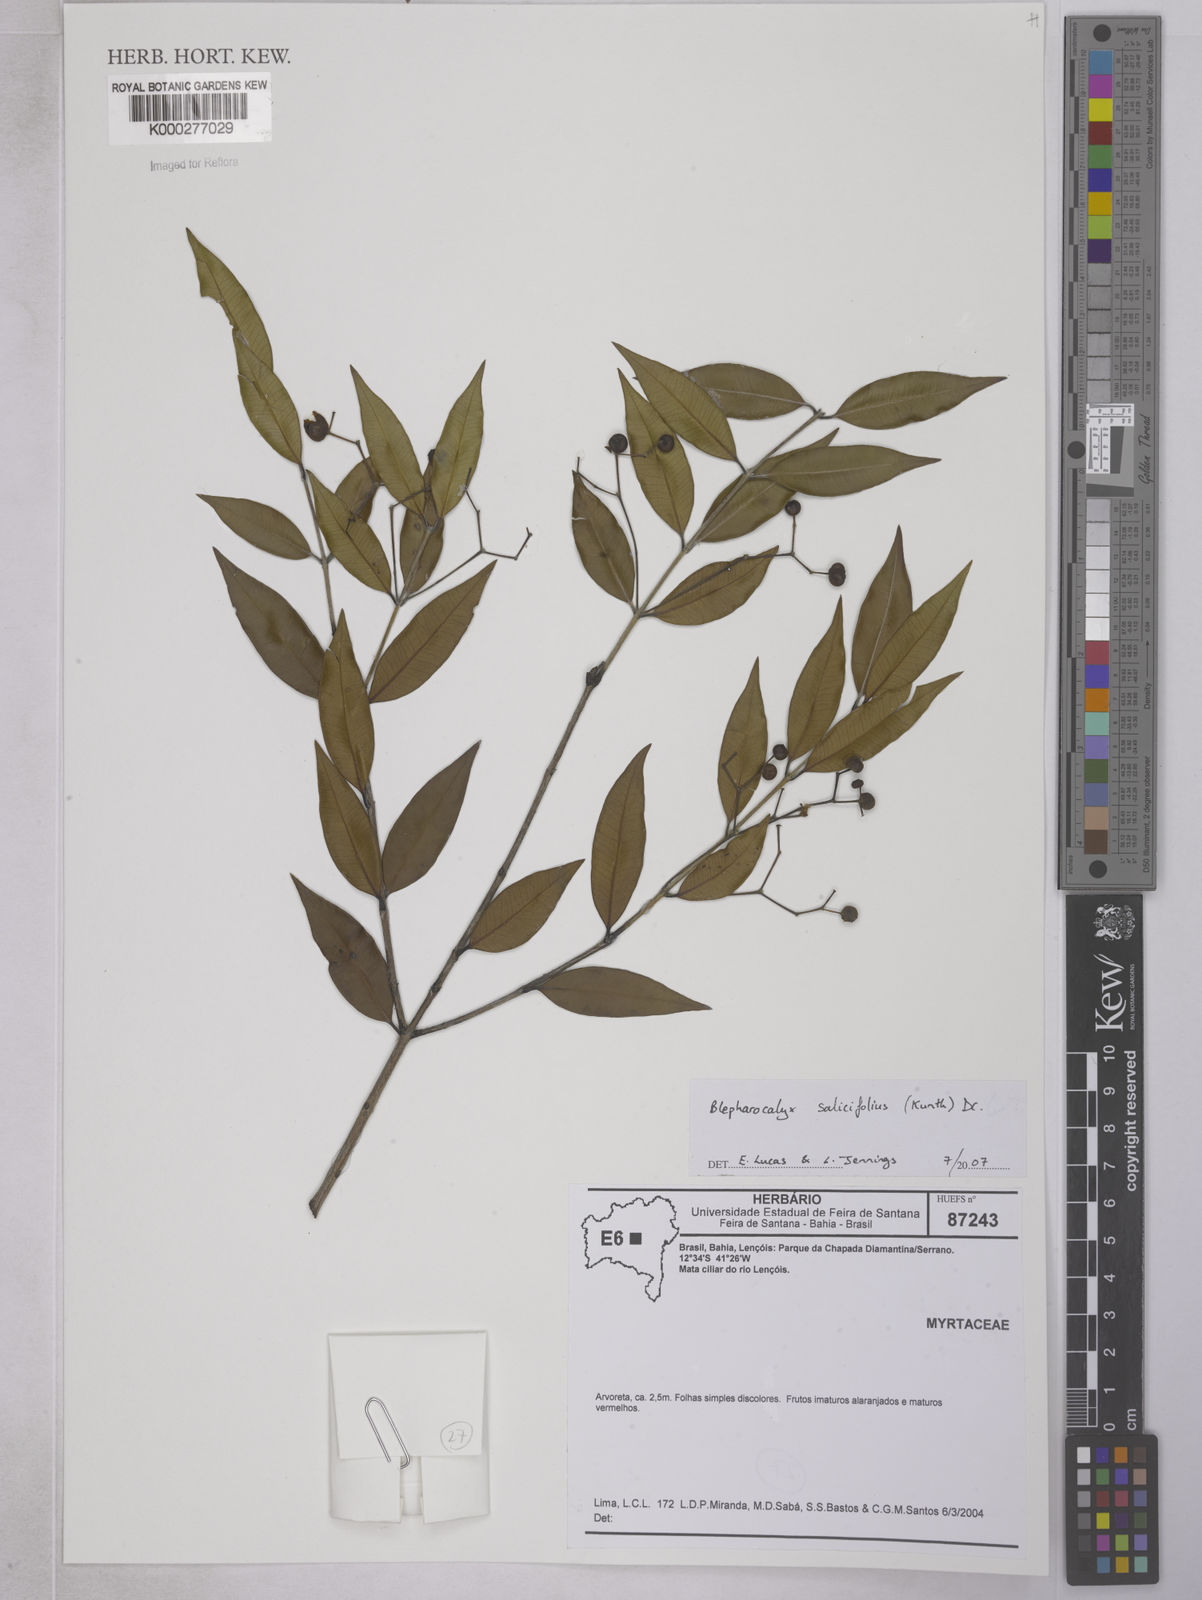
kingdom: Plantae
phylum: Tracheophyta
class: Magnoliopsida
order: Myrtales
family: Myrtaceae
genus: Blepharocalyx
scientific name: Blepharocalyx
